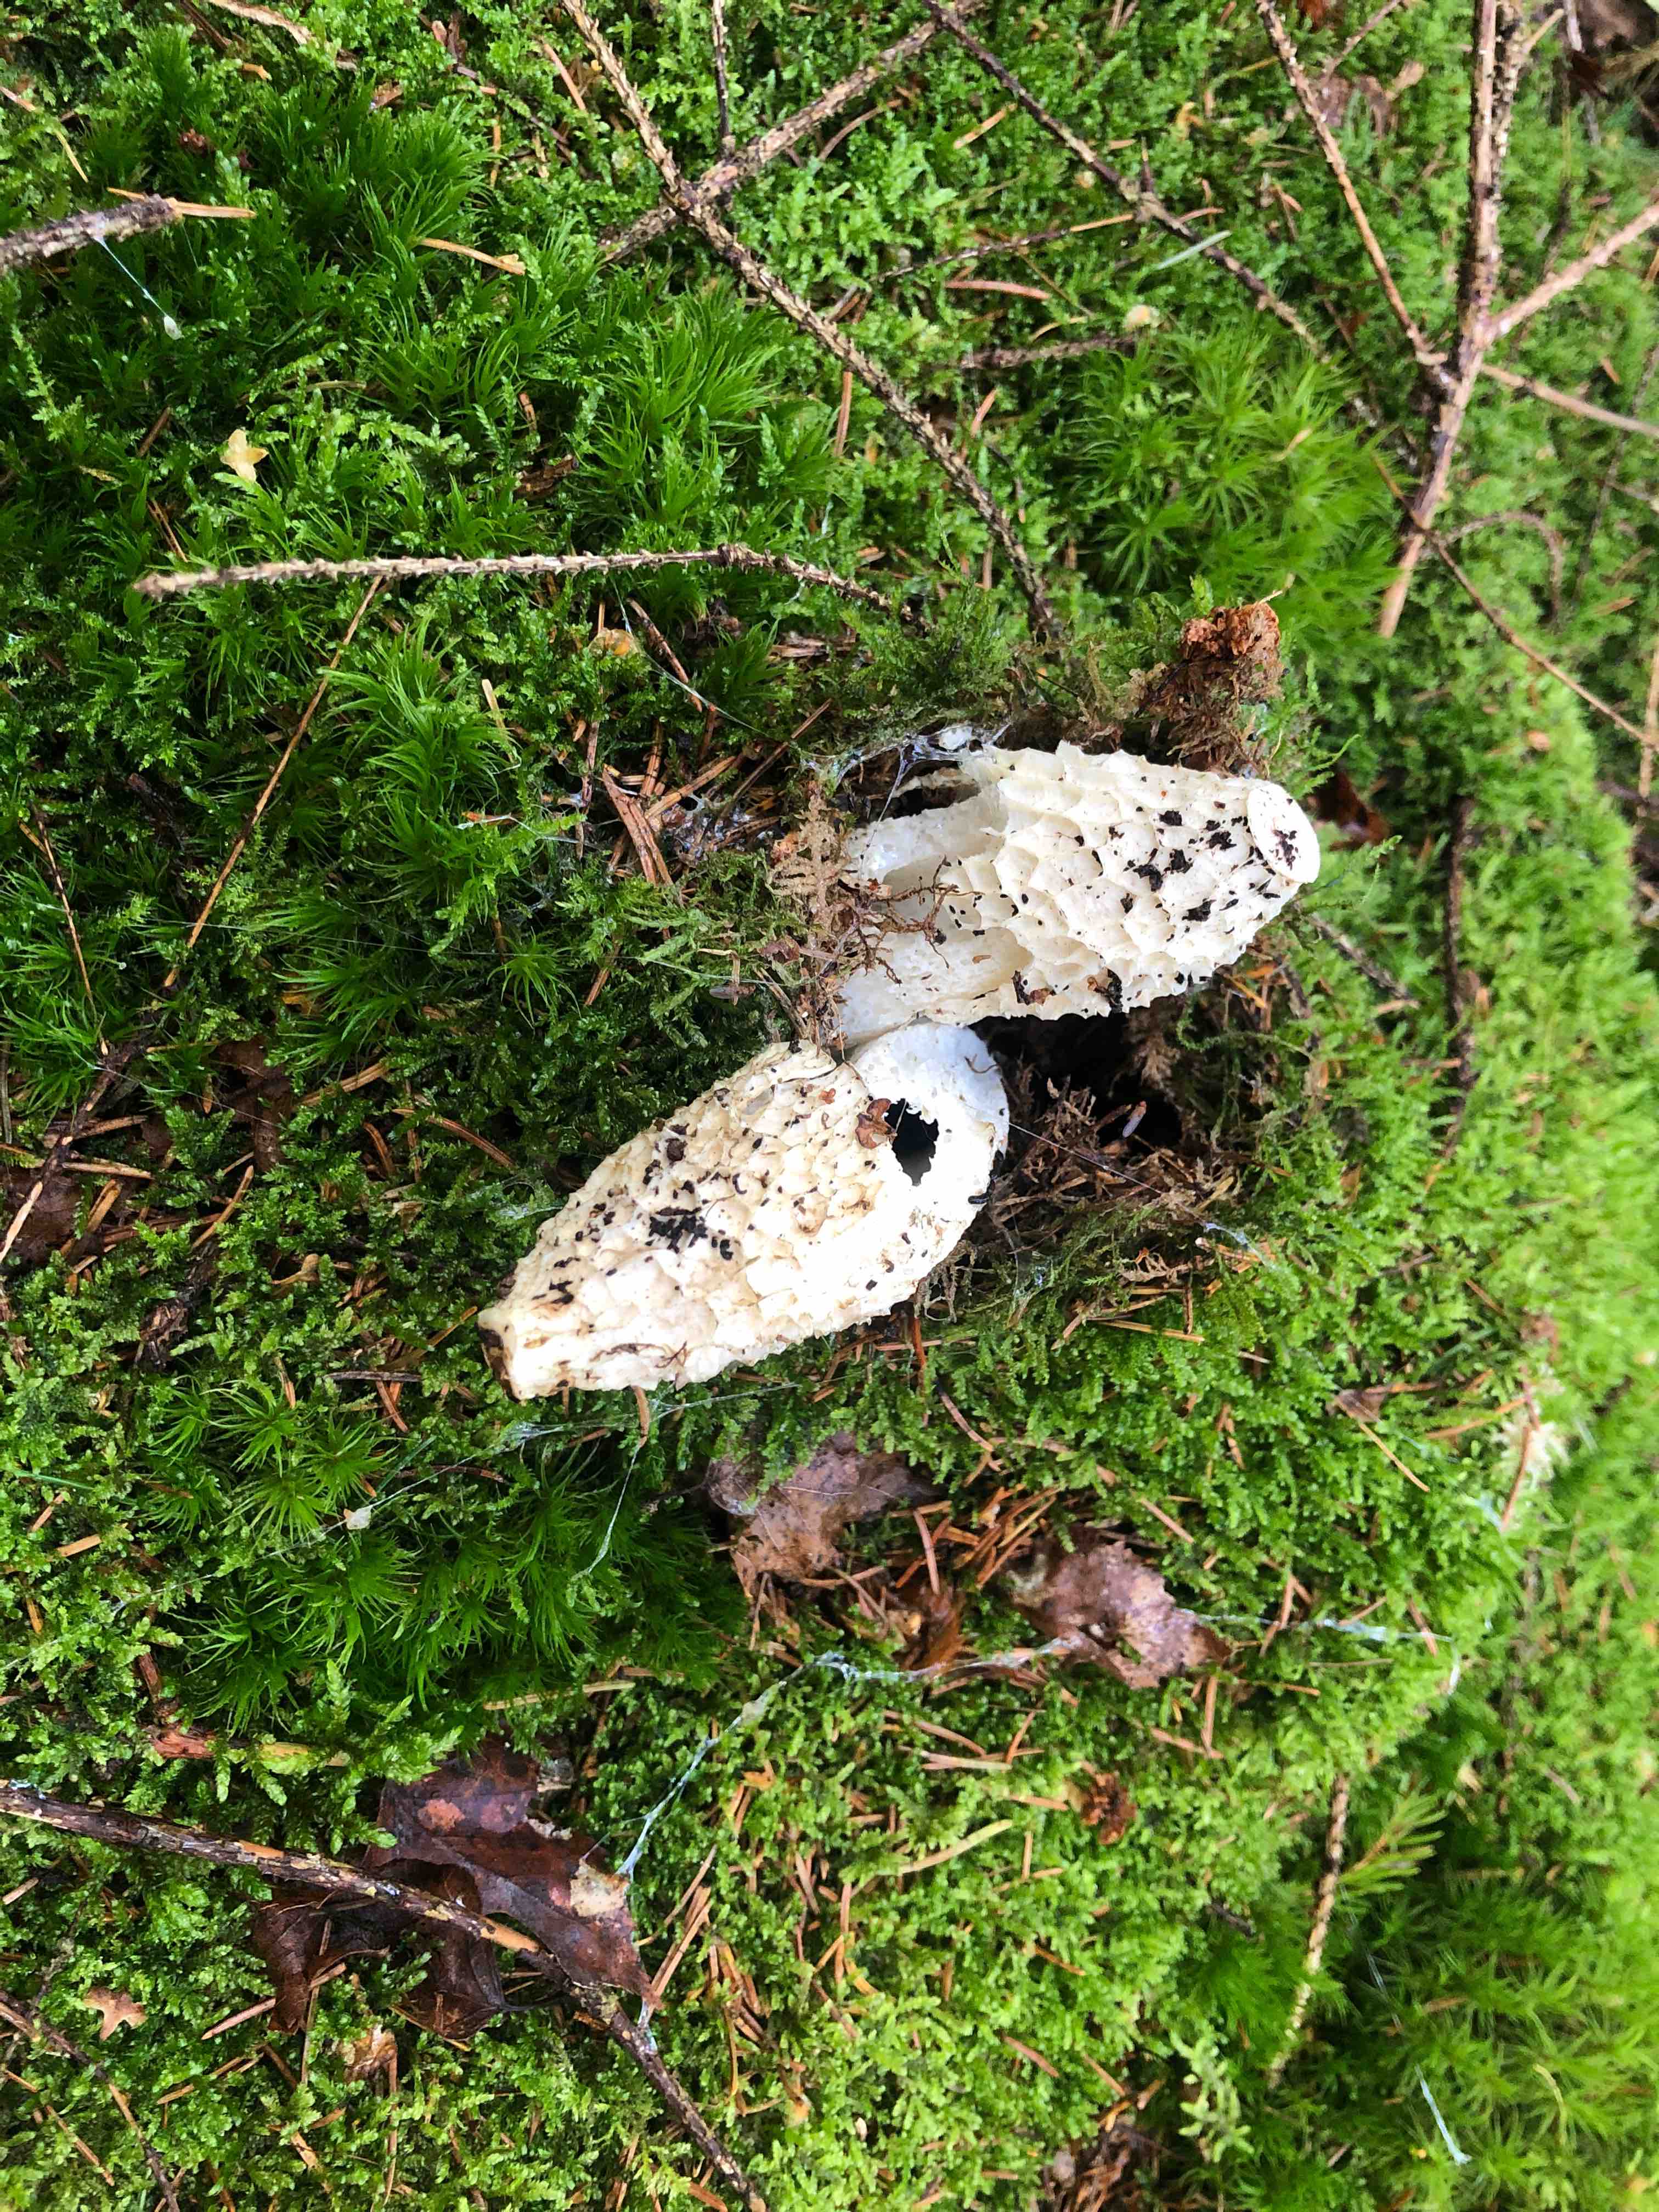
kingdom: Fungi
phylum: Basidiomycota
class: Agaricomycetes
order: Phallales
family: Phallaceae
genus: Phallus
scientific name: Phallus impudicus
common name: almindelig stinksvamp
